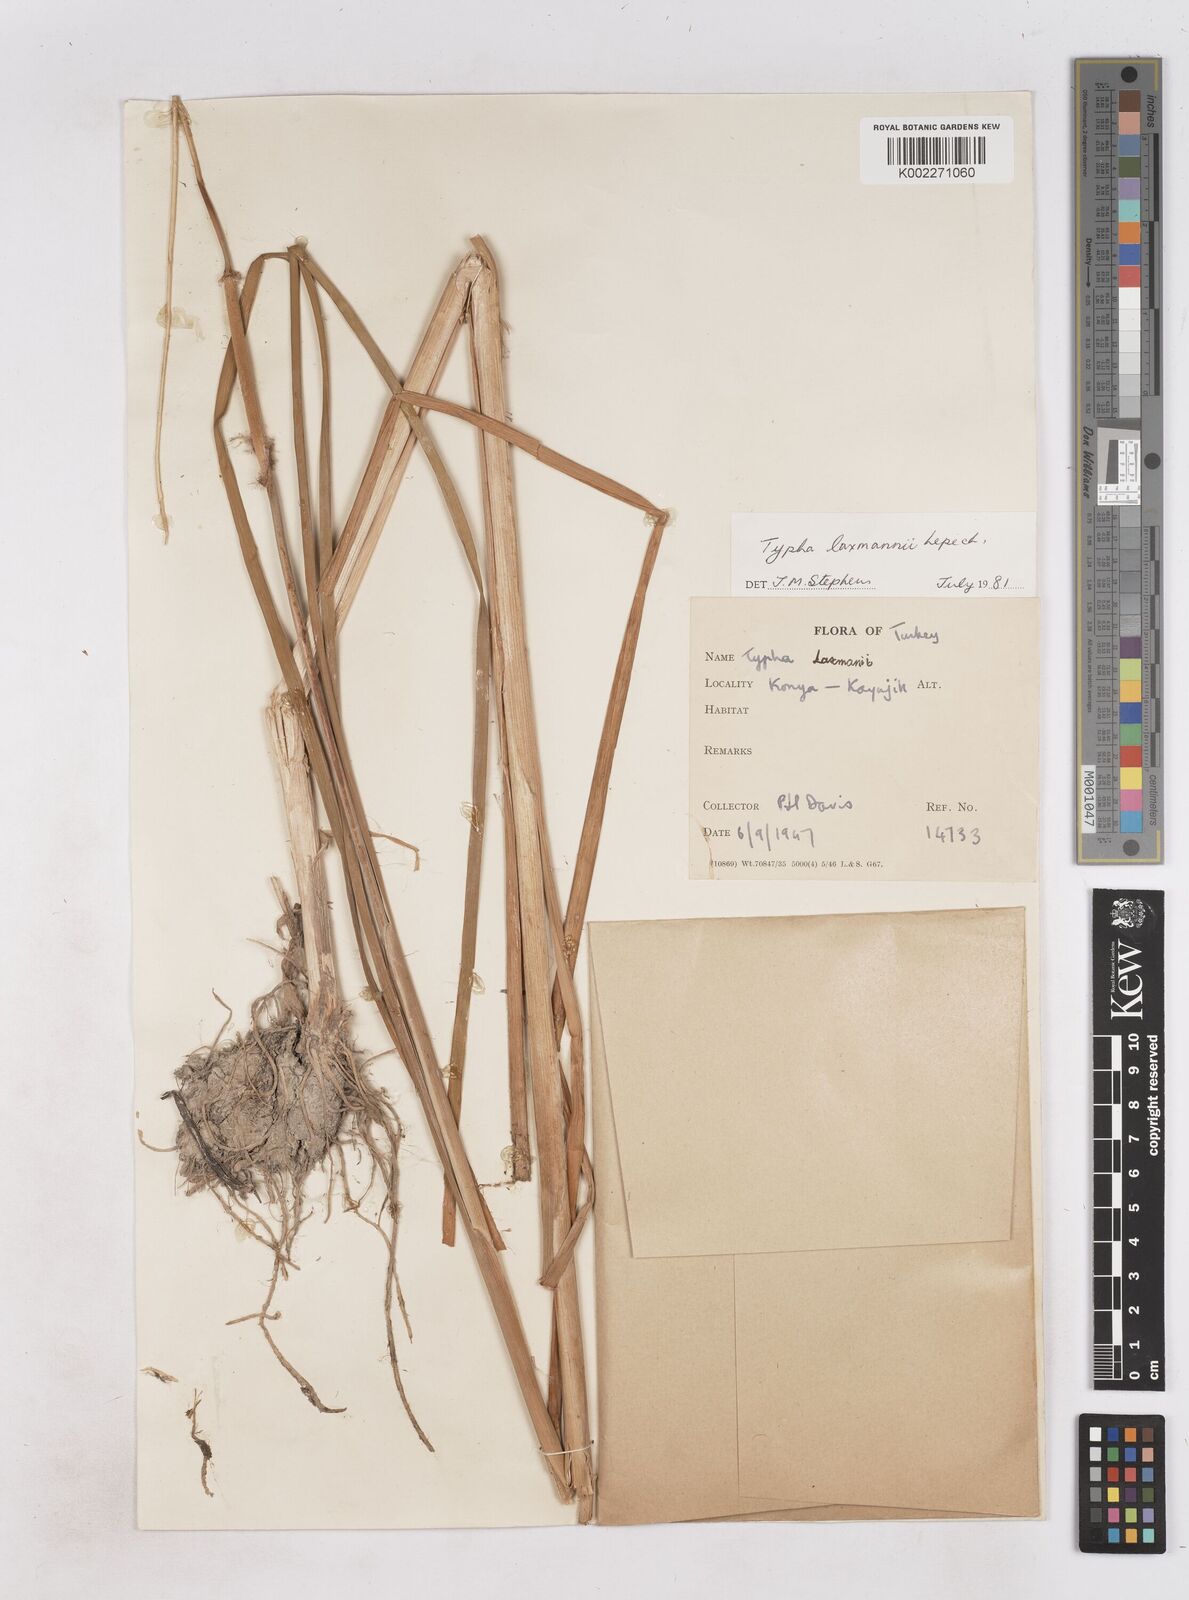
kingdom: Plantae
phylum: Tracheophyta
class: Liliopsida
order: Poales
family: Typhaceae
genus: Typha
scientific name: Typha laxmannii
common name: Laxman’s bulrush
